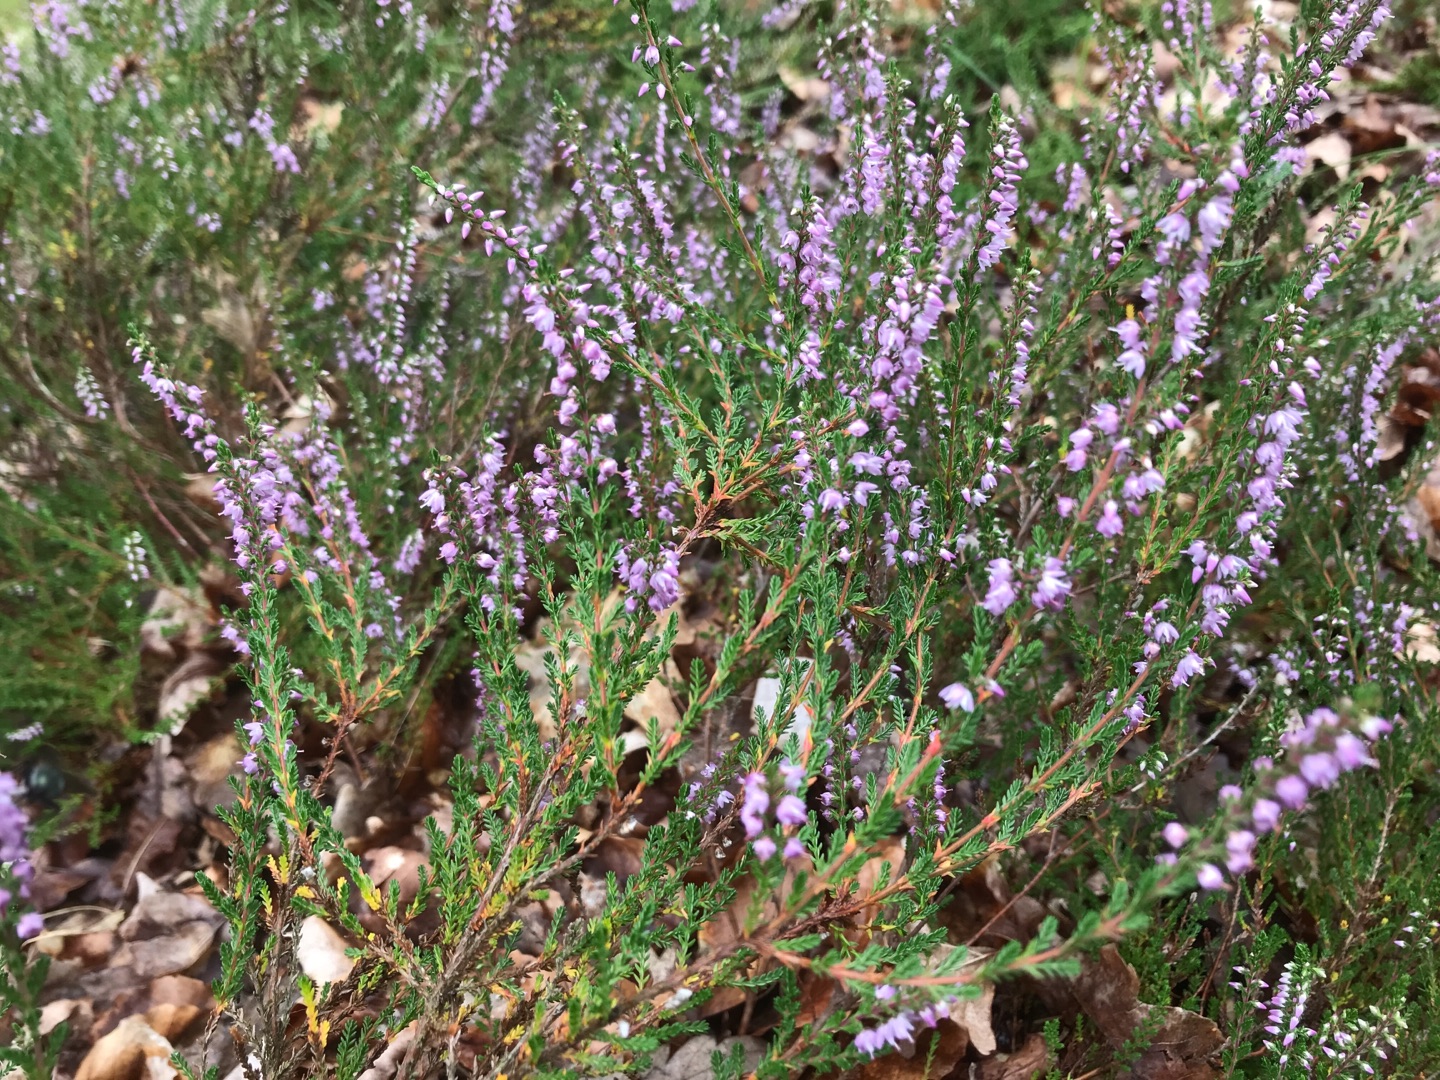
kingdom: Plantae
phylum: Tracheophyta
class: Magnoliopsida
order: Ericales
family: Ericaceae
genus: Calluna
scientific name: Calluna vulgaris
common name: Hedelyng
